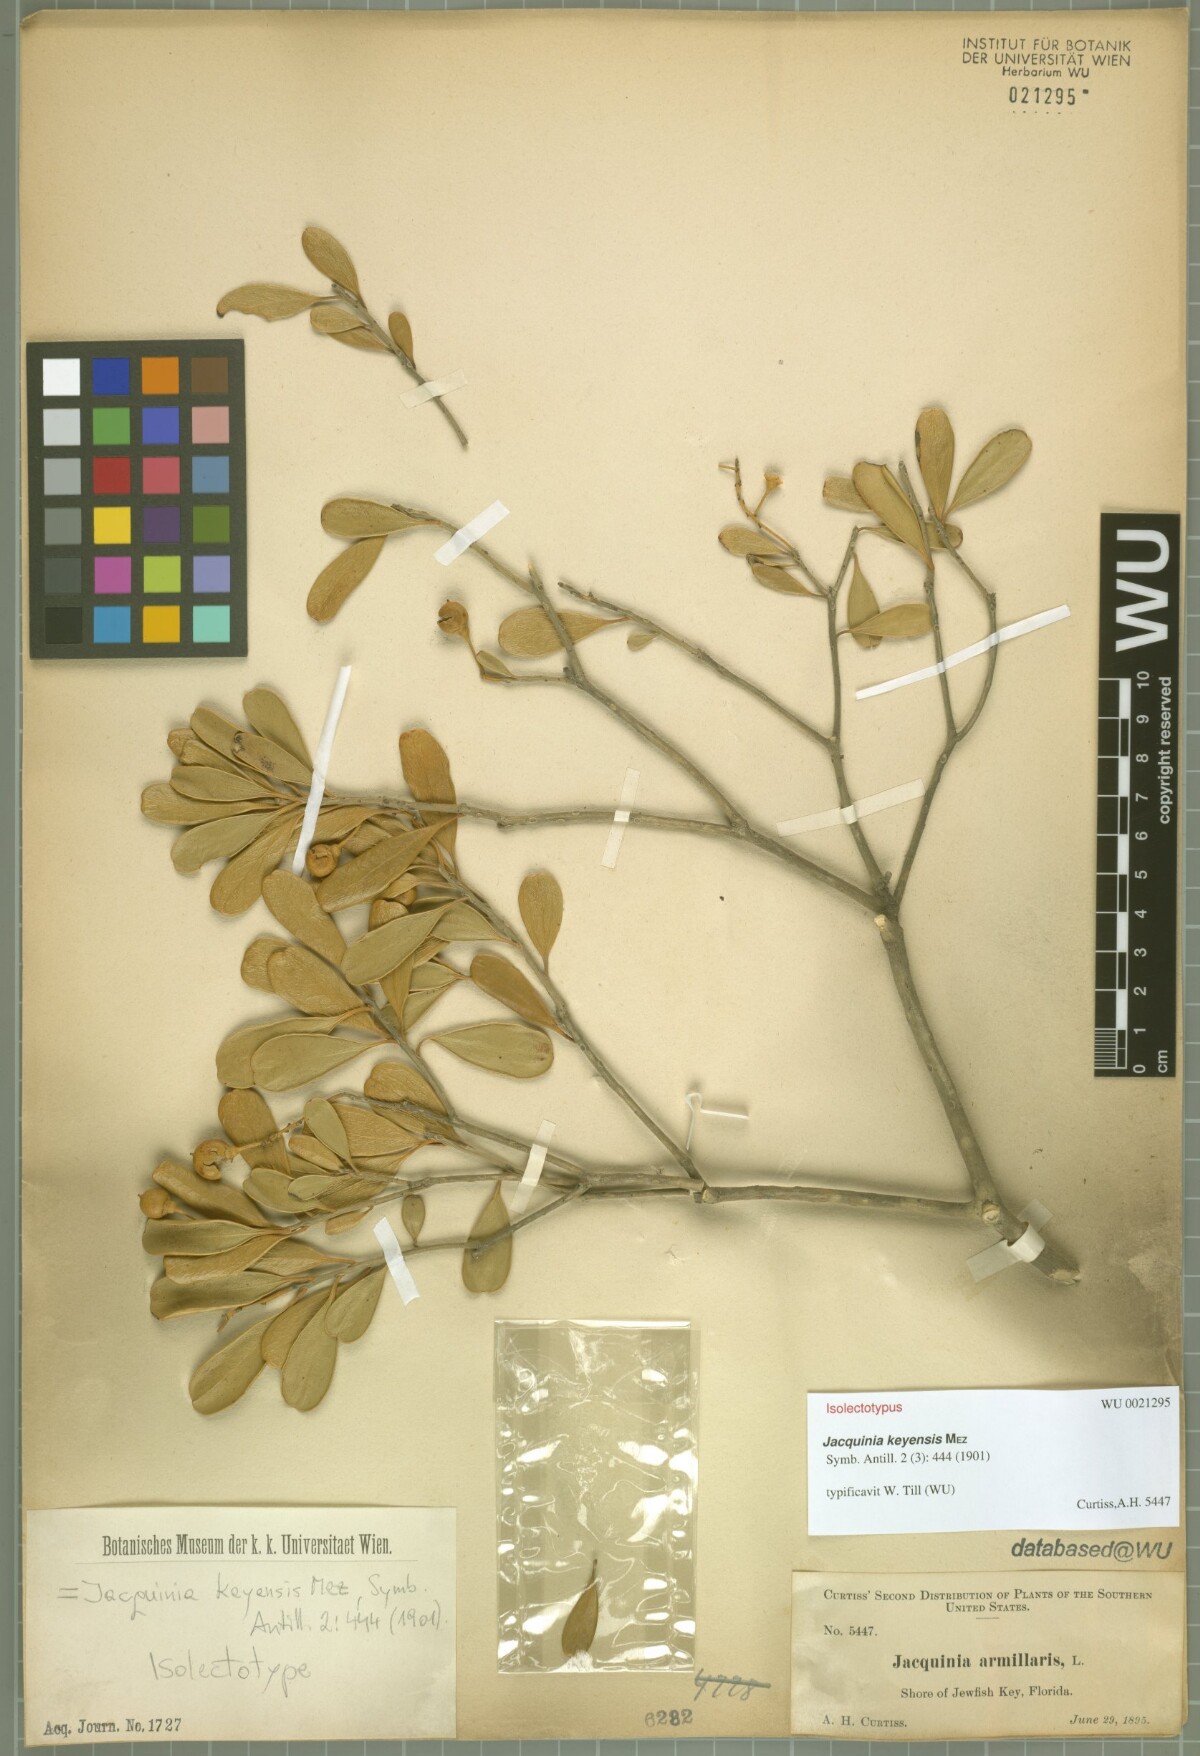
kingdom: Plantae
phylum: Tracheophyta
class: Magnoliopsida
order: Ericales
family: Primulaceae
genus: Jacquinia
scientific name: Jacquinia keyensis
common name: Joebush
